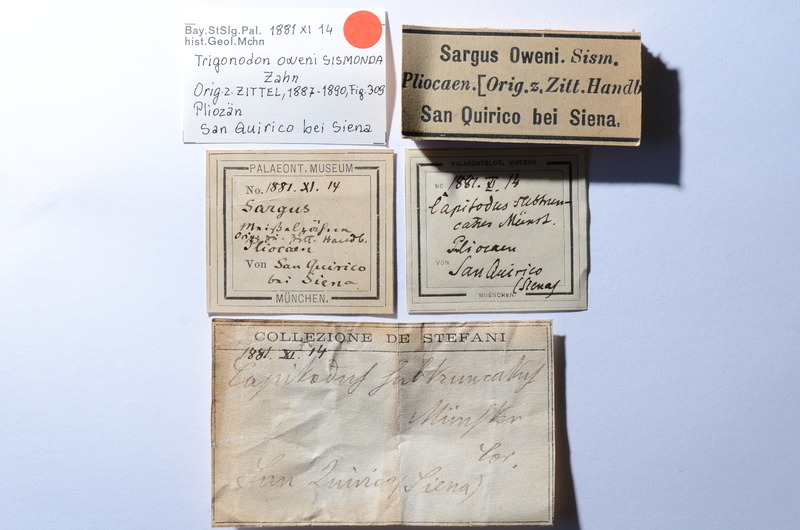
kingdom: Animalia
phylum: Chordata
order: Tetraodontiformes
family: Trigonodontidae
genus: Trigonodon
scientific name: Trigonodon Radamas jugleri
